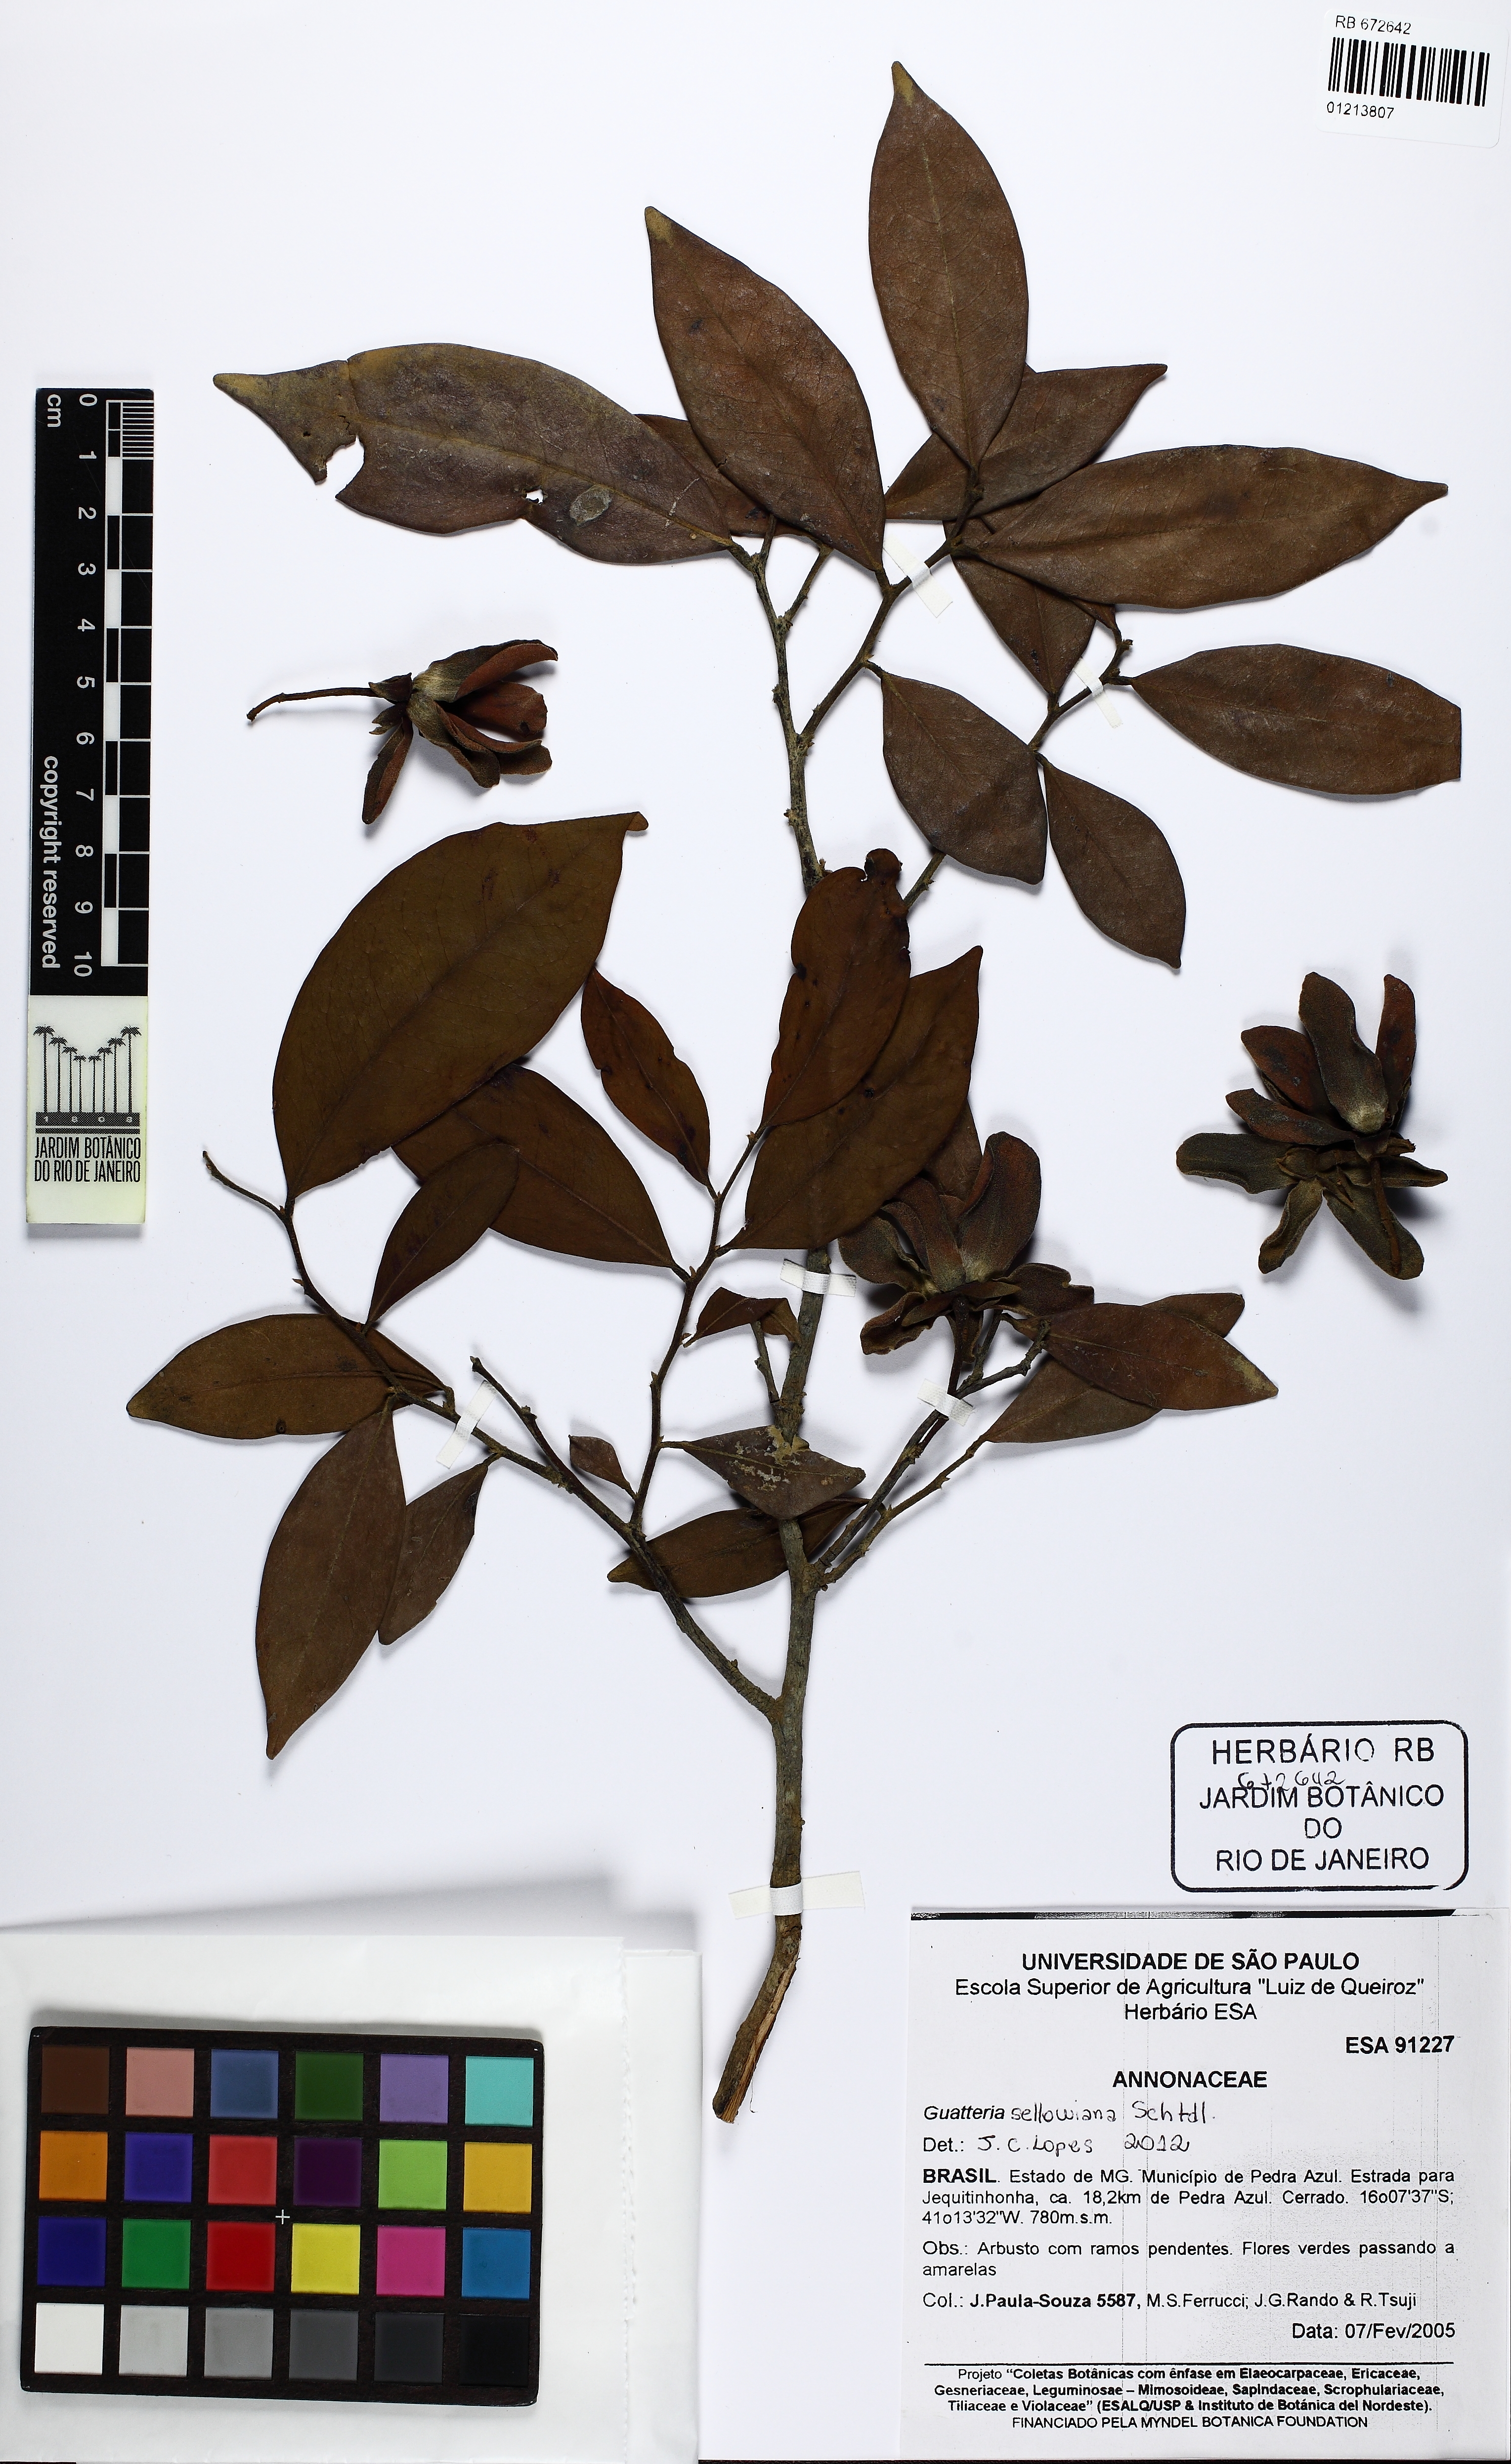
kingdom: Plantae
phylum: Tracheophyta
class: Magnoliopsida
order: Magnoliales
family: Annonaceae
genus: Guatteria
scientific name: Guatteria sellowiana
